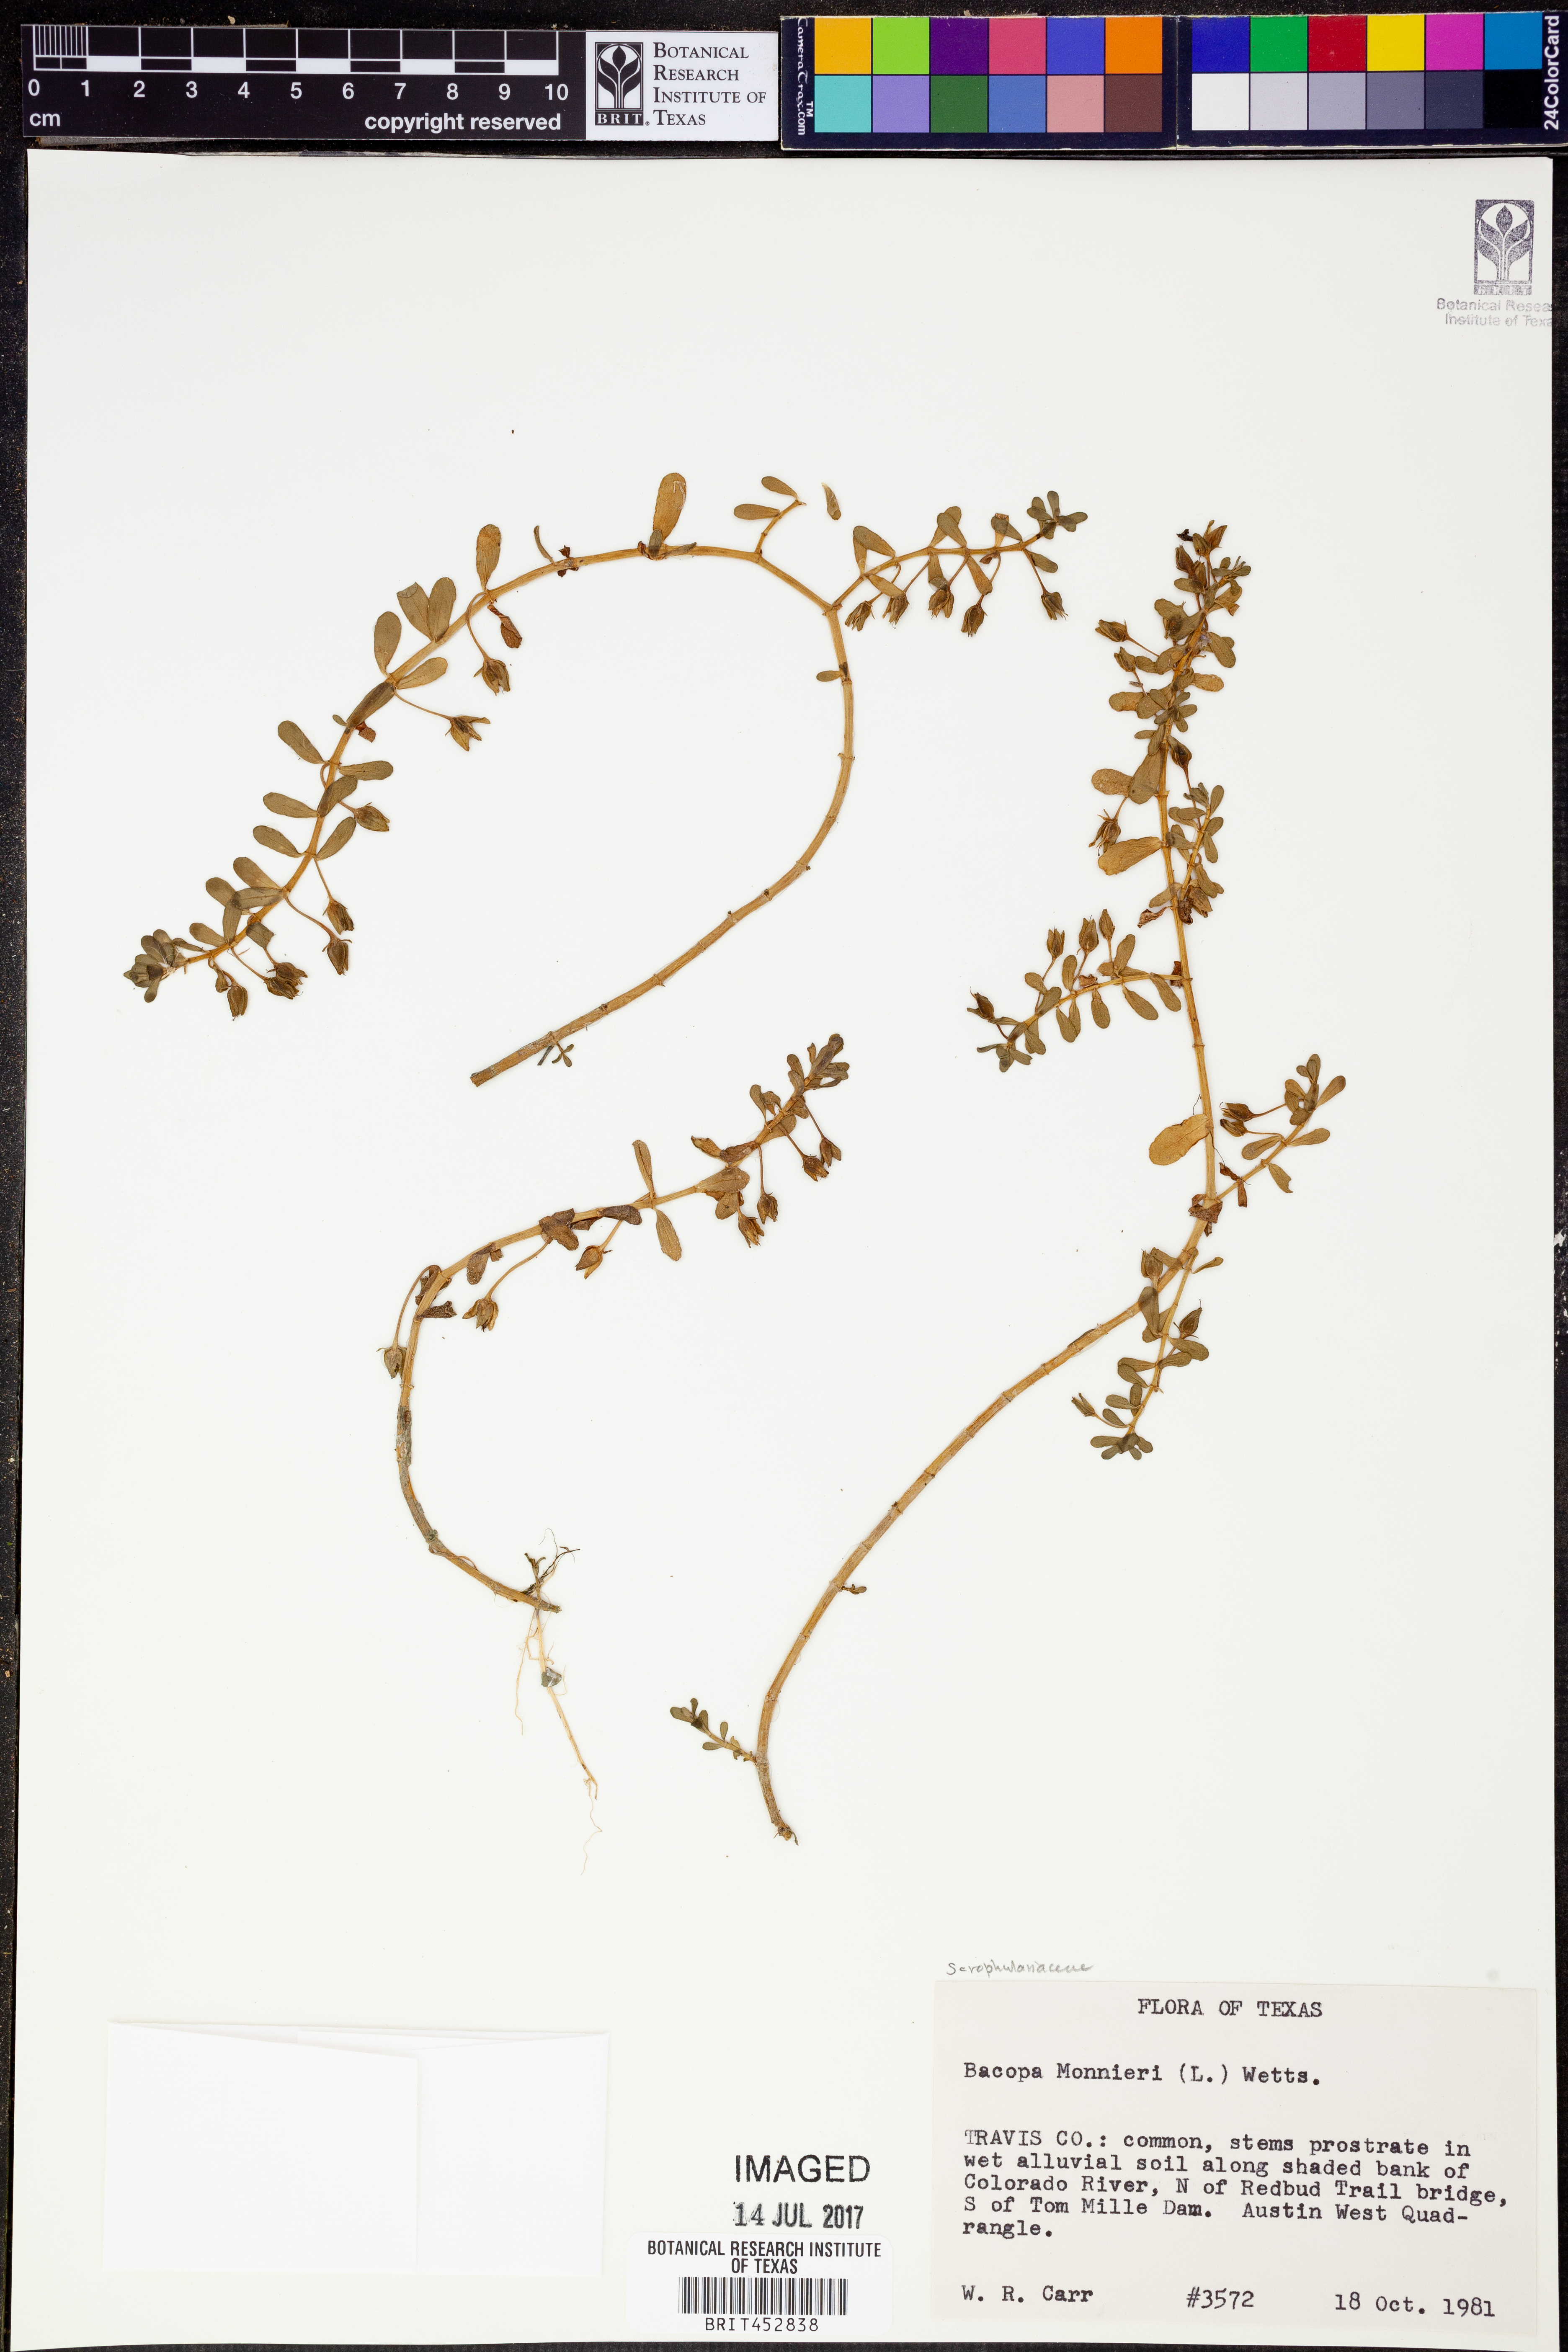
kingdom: Plantae
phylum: Tracheophyta
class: Magnoliopsida
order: Lamiales
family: Plantaginaceae
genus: Bacopa
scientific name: Bacopa monnieri
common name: Indian-pennywort
